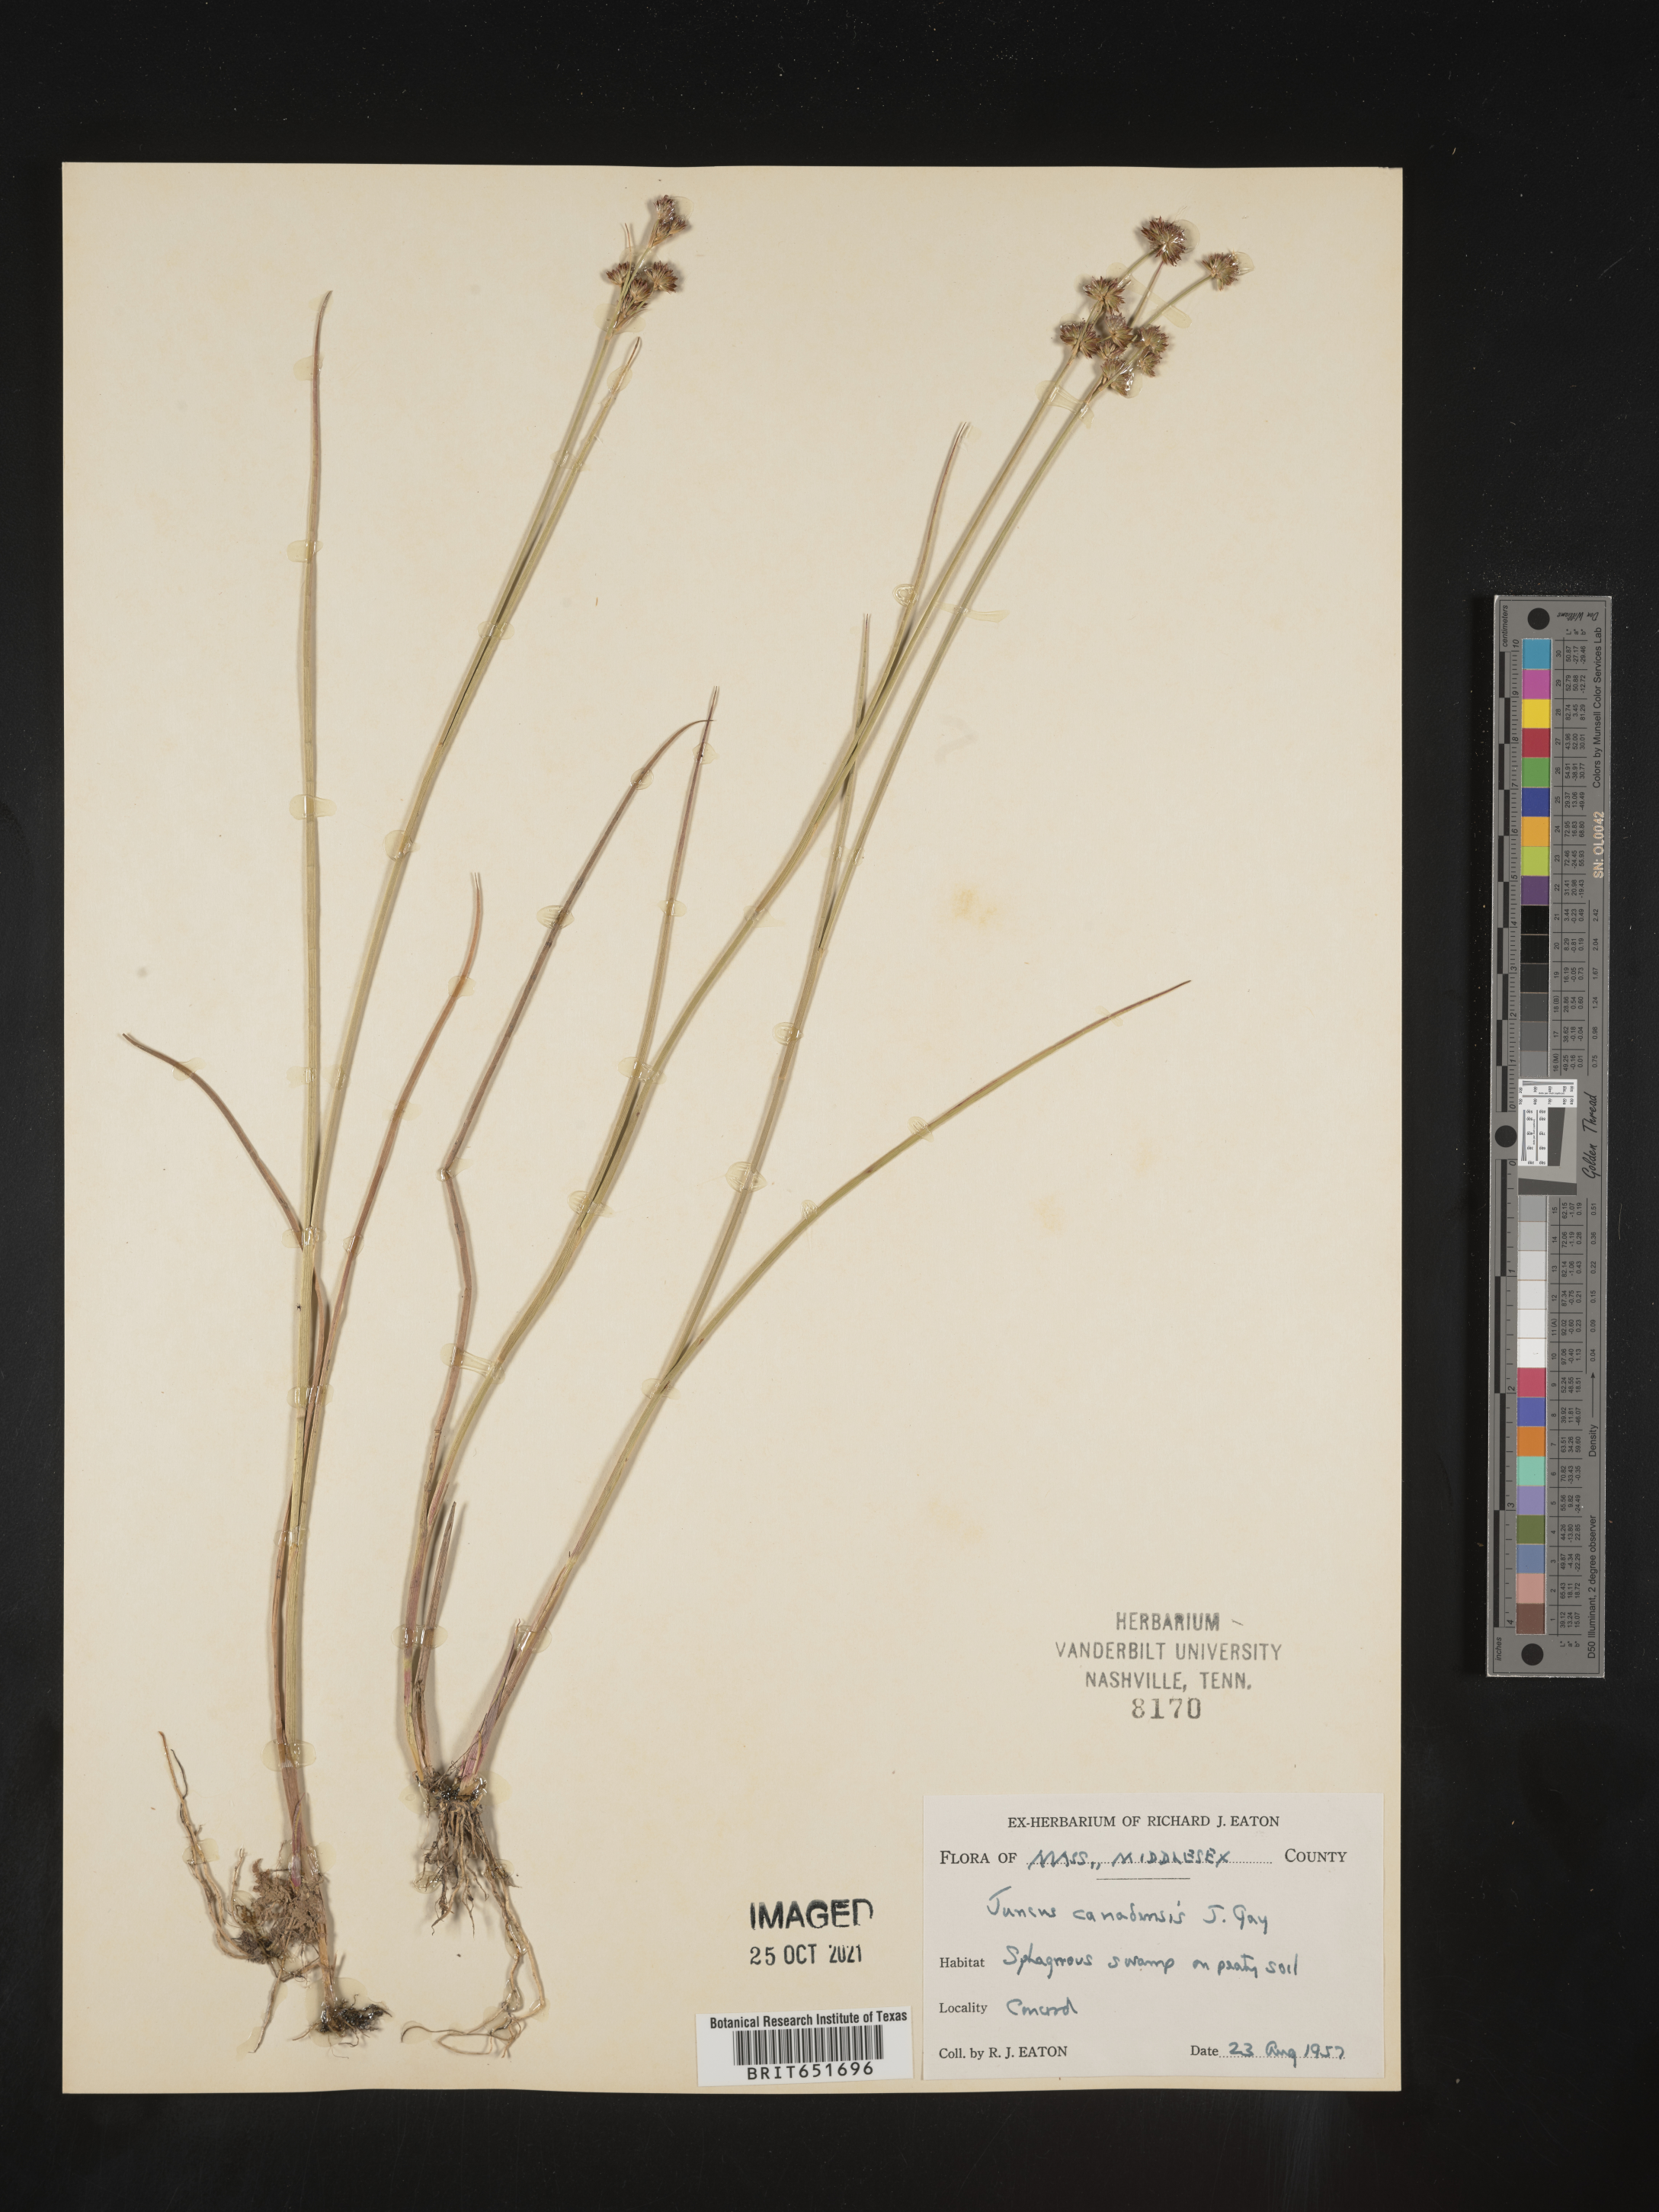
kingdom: Plantae
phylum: Tracheophyta
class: Liliopsida
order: Poales
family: Juncaceae
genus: Juncus
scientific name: Juncus canadensis
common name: Canada rush
